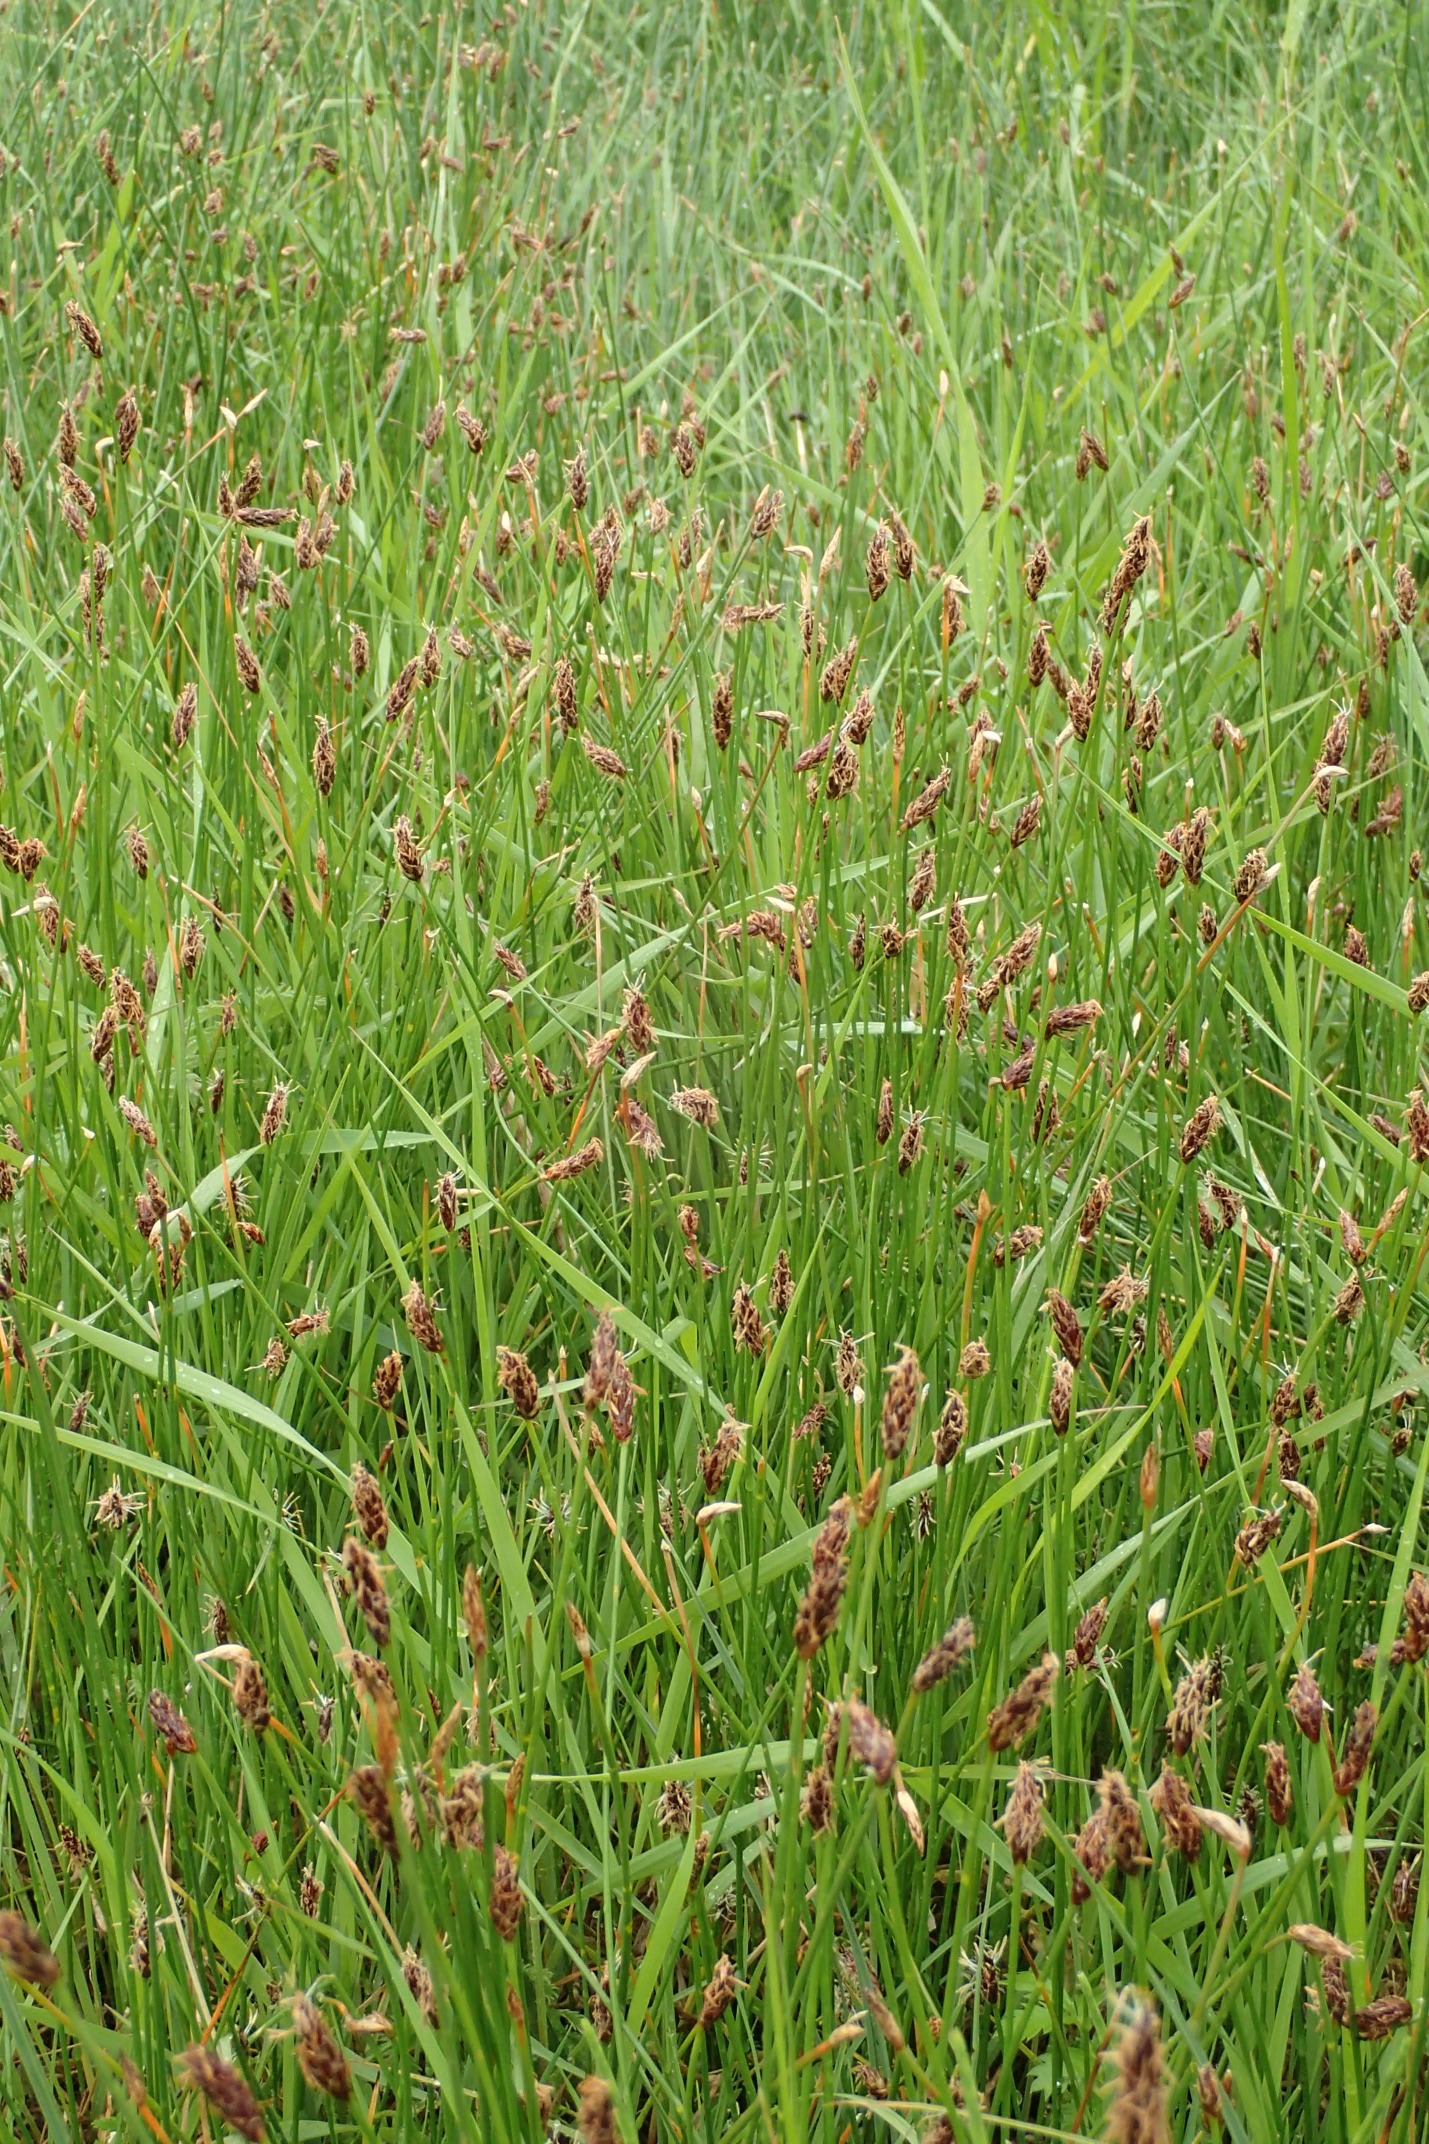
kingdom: Plantae
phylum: Tracheophyta
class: Liliopsida
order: Poales
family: Cyperaceae
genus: Eleocharis
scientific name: Eleocharis uniglumis
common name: Enskællet sumpstrå
